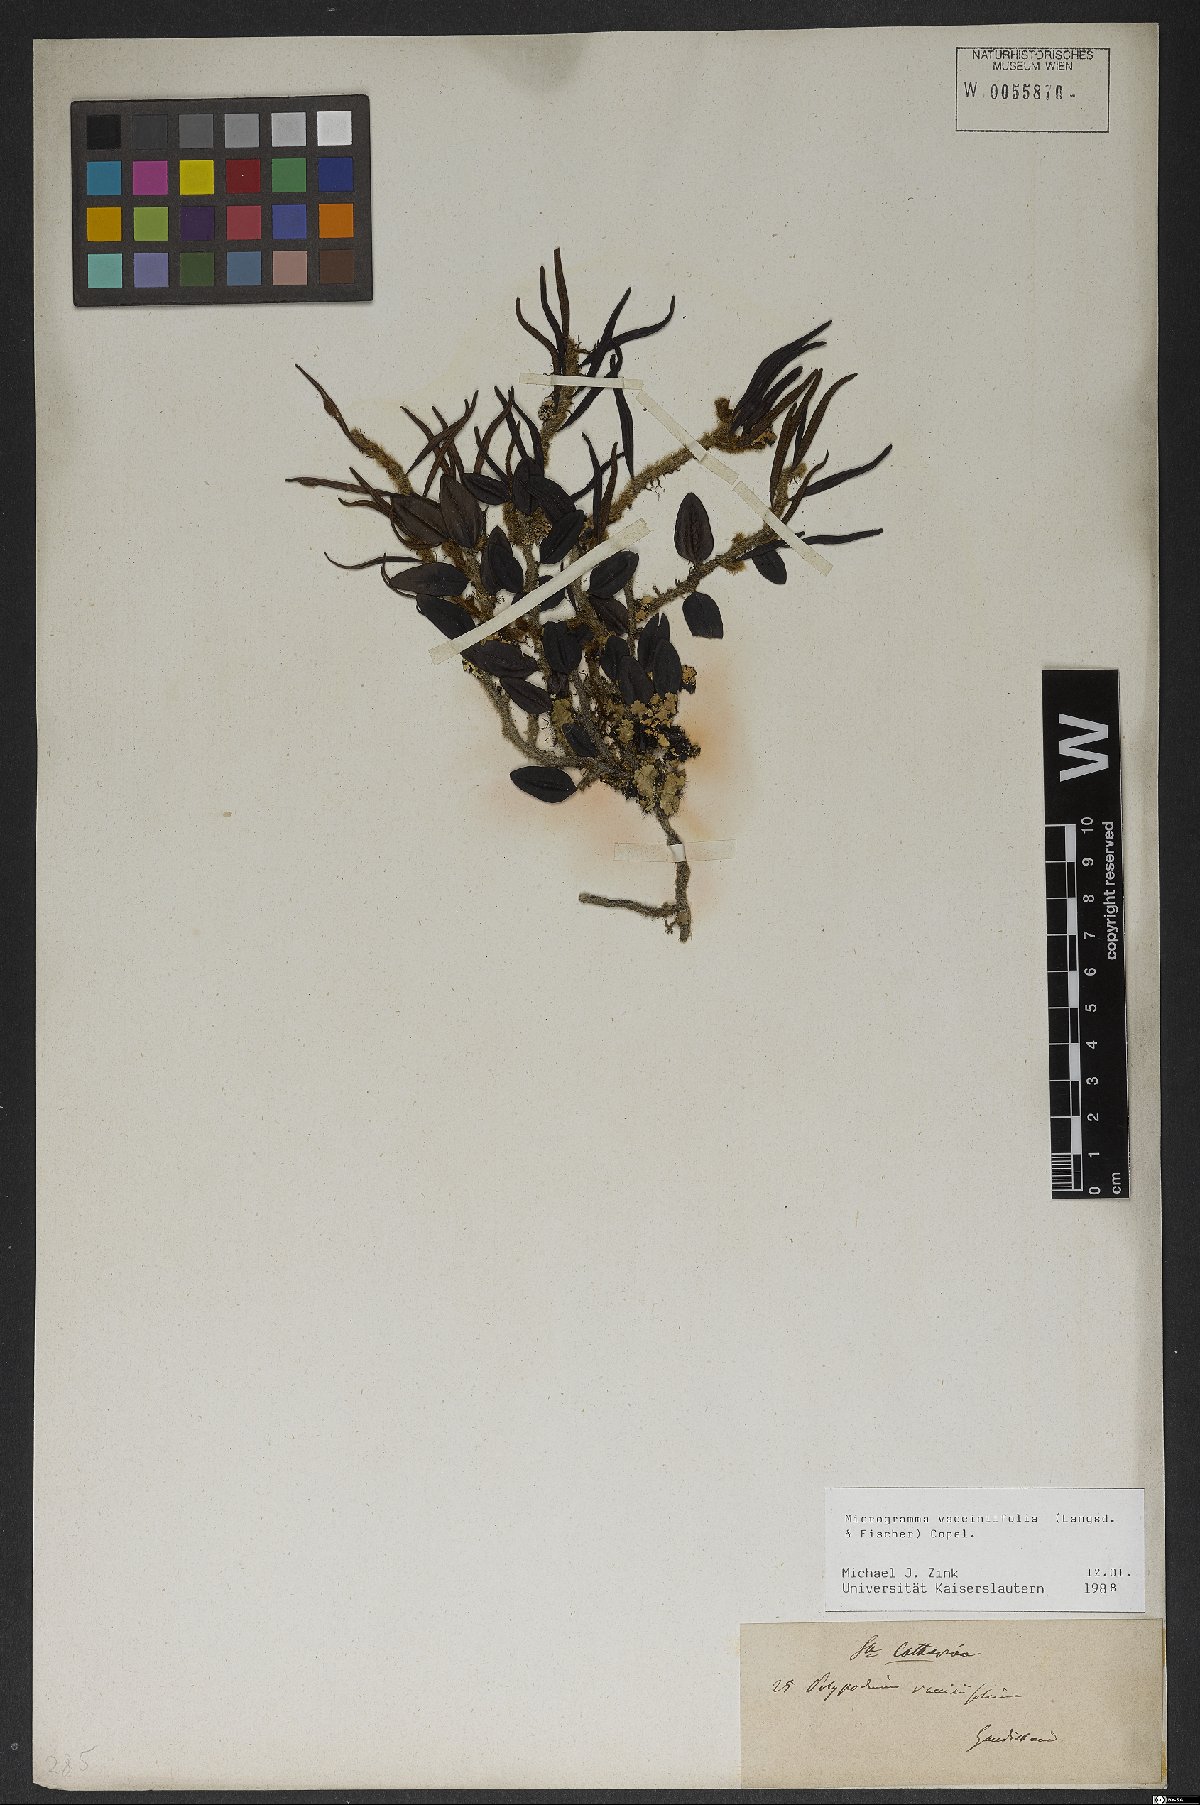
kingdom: Plantae
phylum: Tracheophyta
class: Polypodiopsida
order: Polypodiales
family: Polypodiaceae
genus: Microgramma
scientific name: Microgramma vaccinifolia
